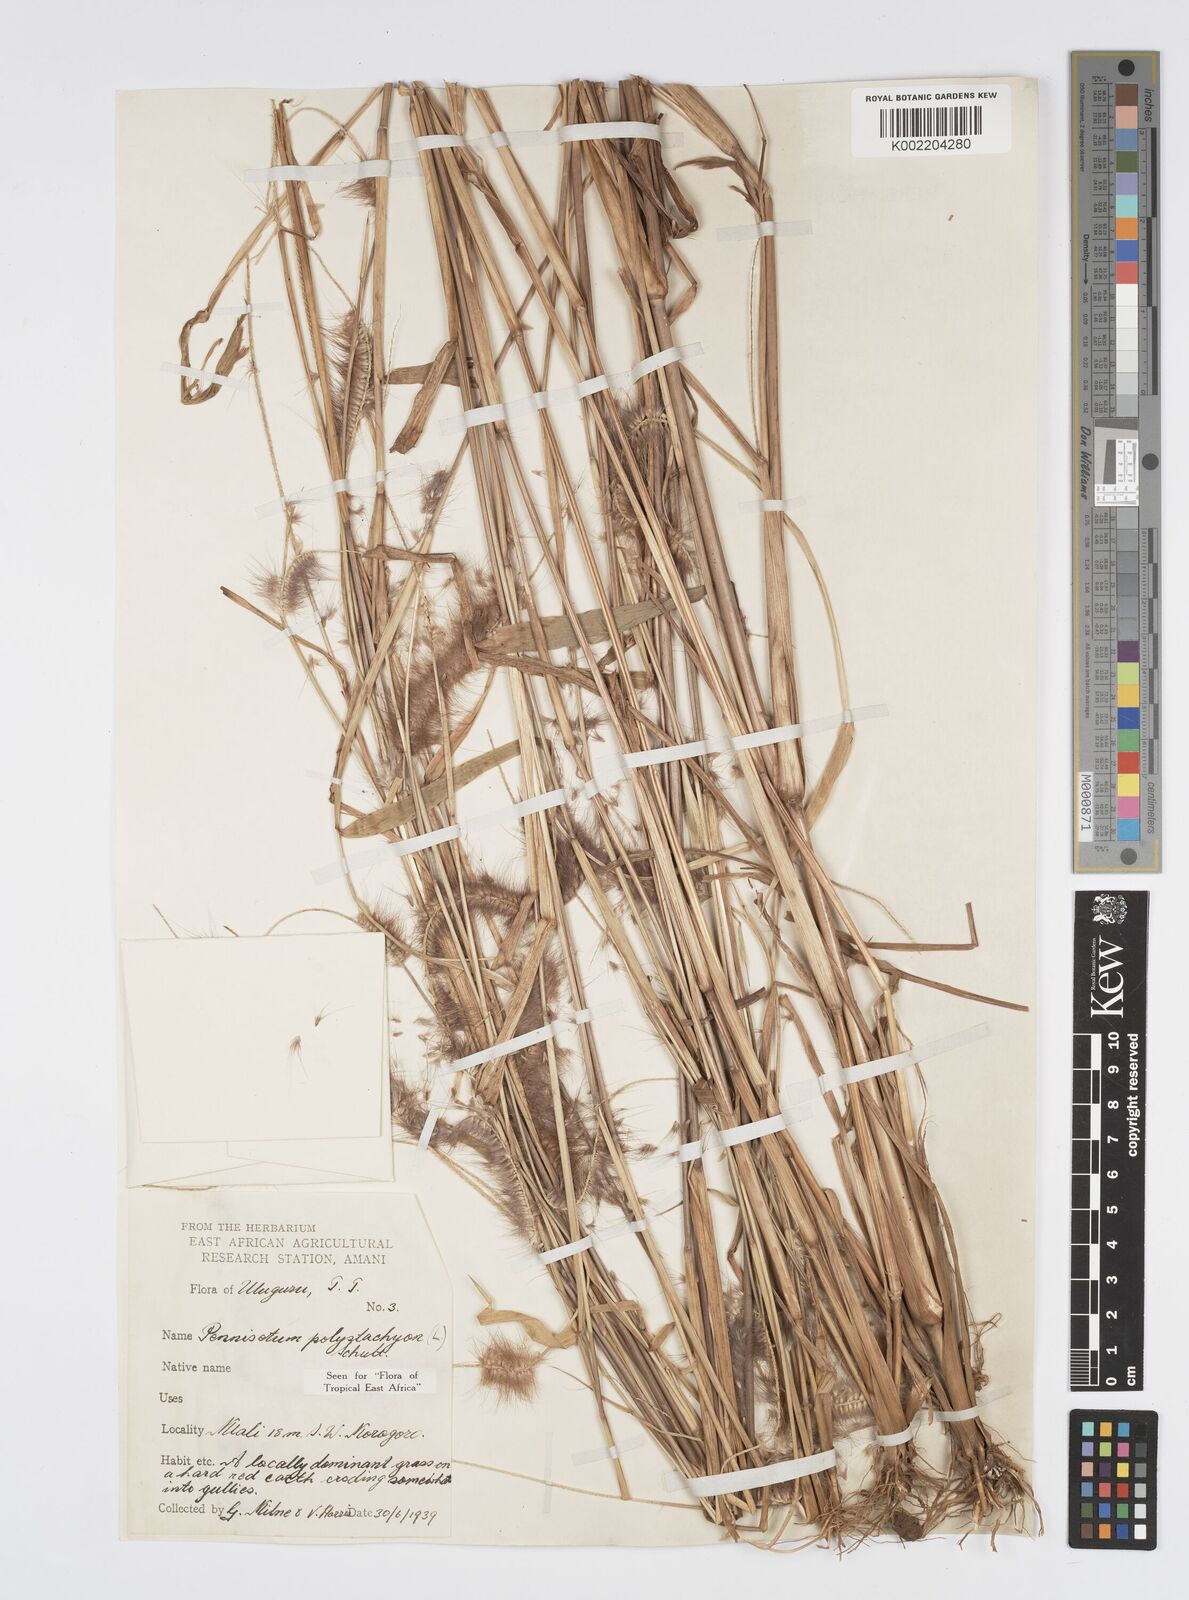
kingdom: Plantae
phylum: Tracheophyta
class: Liliopsida
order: Poales
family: Poaceae
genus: Setaria
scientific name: Setaria parviflora
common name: Knotroot bristle-grass
